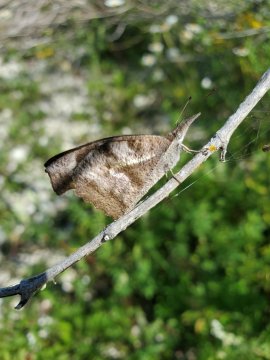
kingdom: Animalia
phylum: Arthropoda
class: Insecta
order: Lepidoptera
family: Nymphalidae
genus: Libytheana
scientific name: Libytheana carinenta
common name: American Snout
